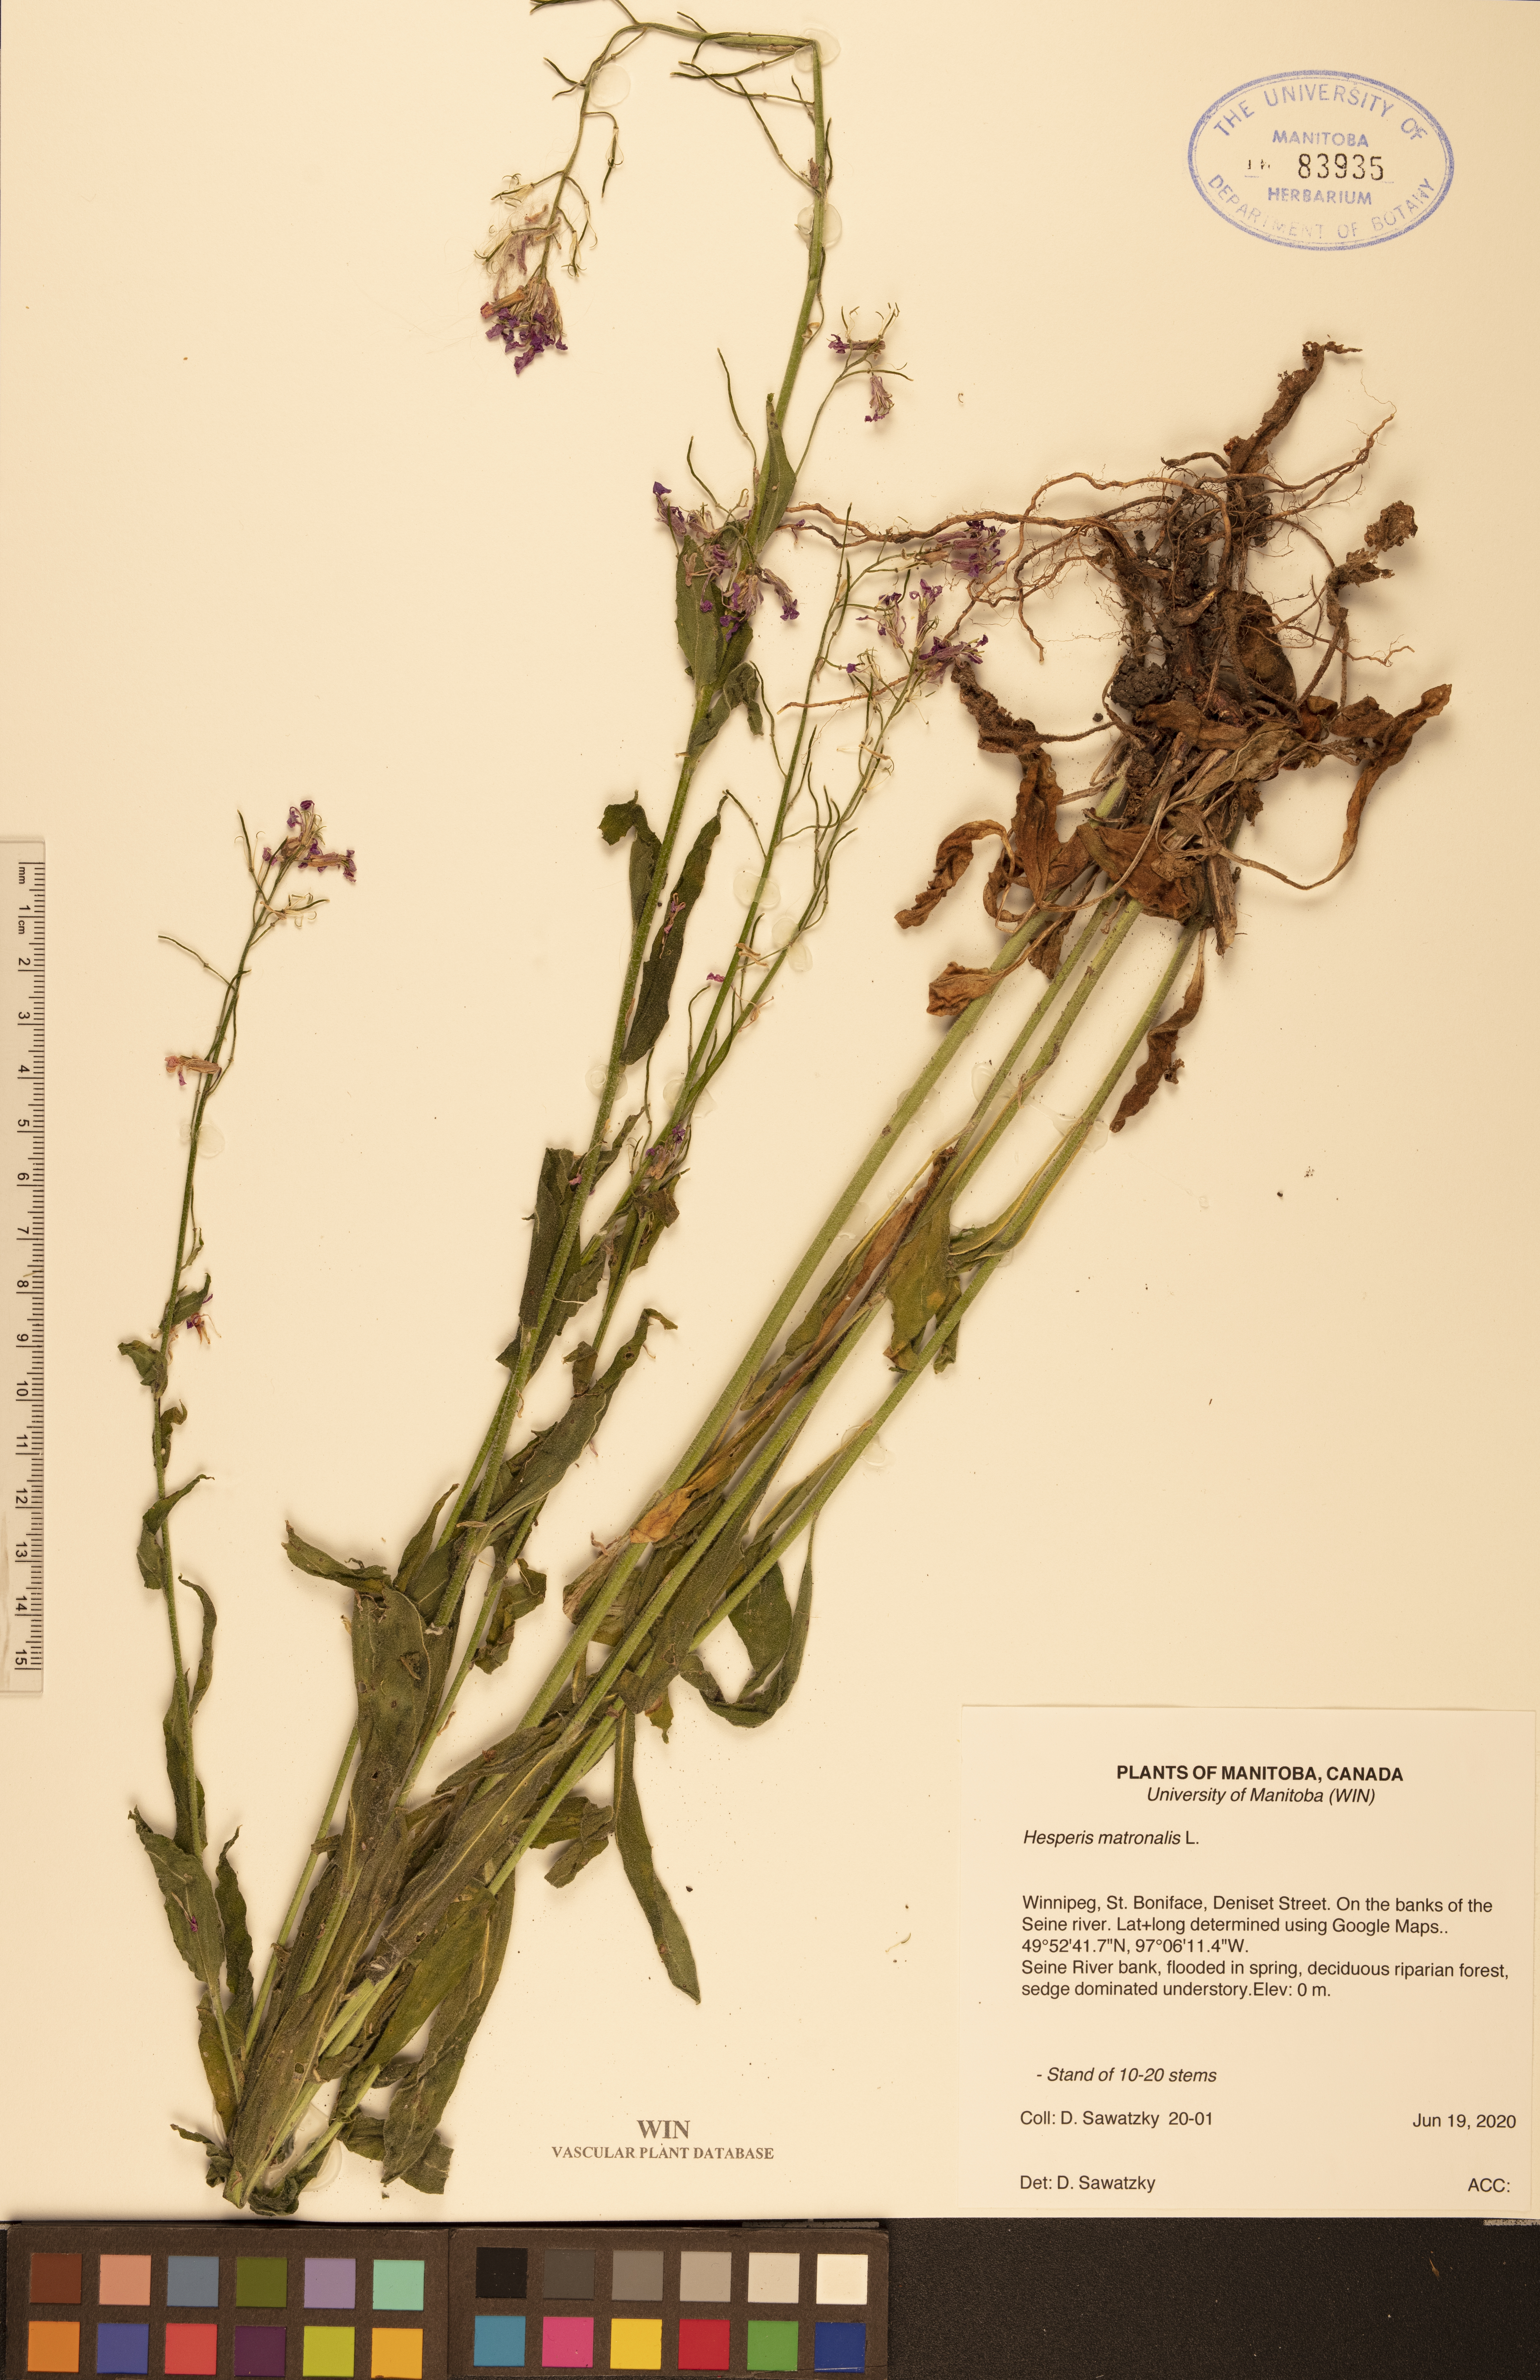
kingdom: Plantae
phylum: Tracheophyta
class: Magnoliopsida
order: Brassicales
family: Brassicaceae
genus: Hesperis
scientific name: Hesperis matronalis
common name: Dame's-violet
